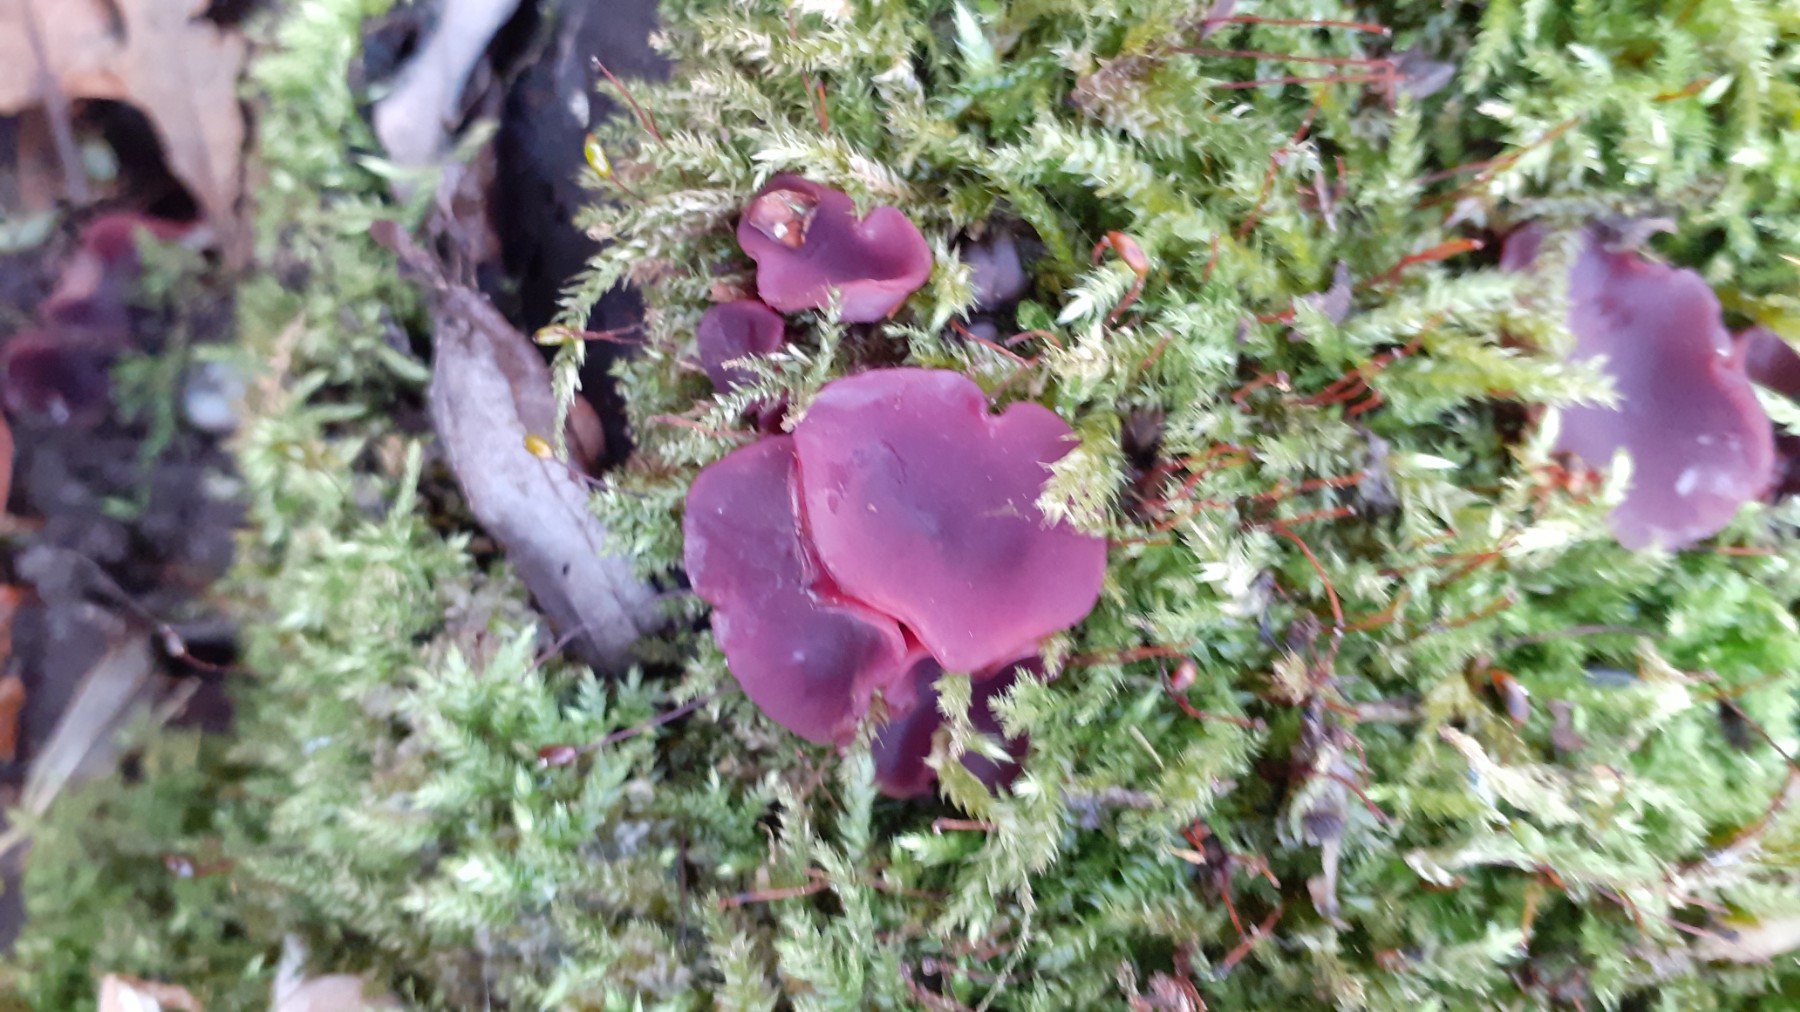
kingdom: Fungi
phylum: Ascomycota
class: Leotiomycetes
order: Helotiales
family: Gelatinodiscaceae
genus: Ascocoryne
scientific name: Ascocoryne sarcoides
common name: rødlilla sejskive
